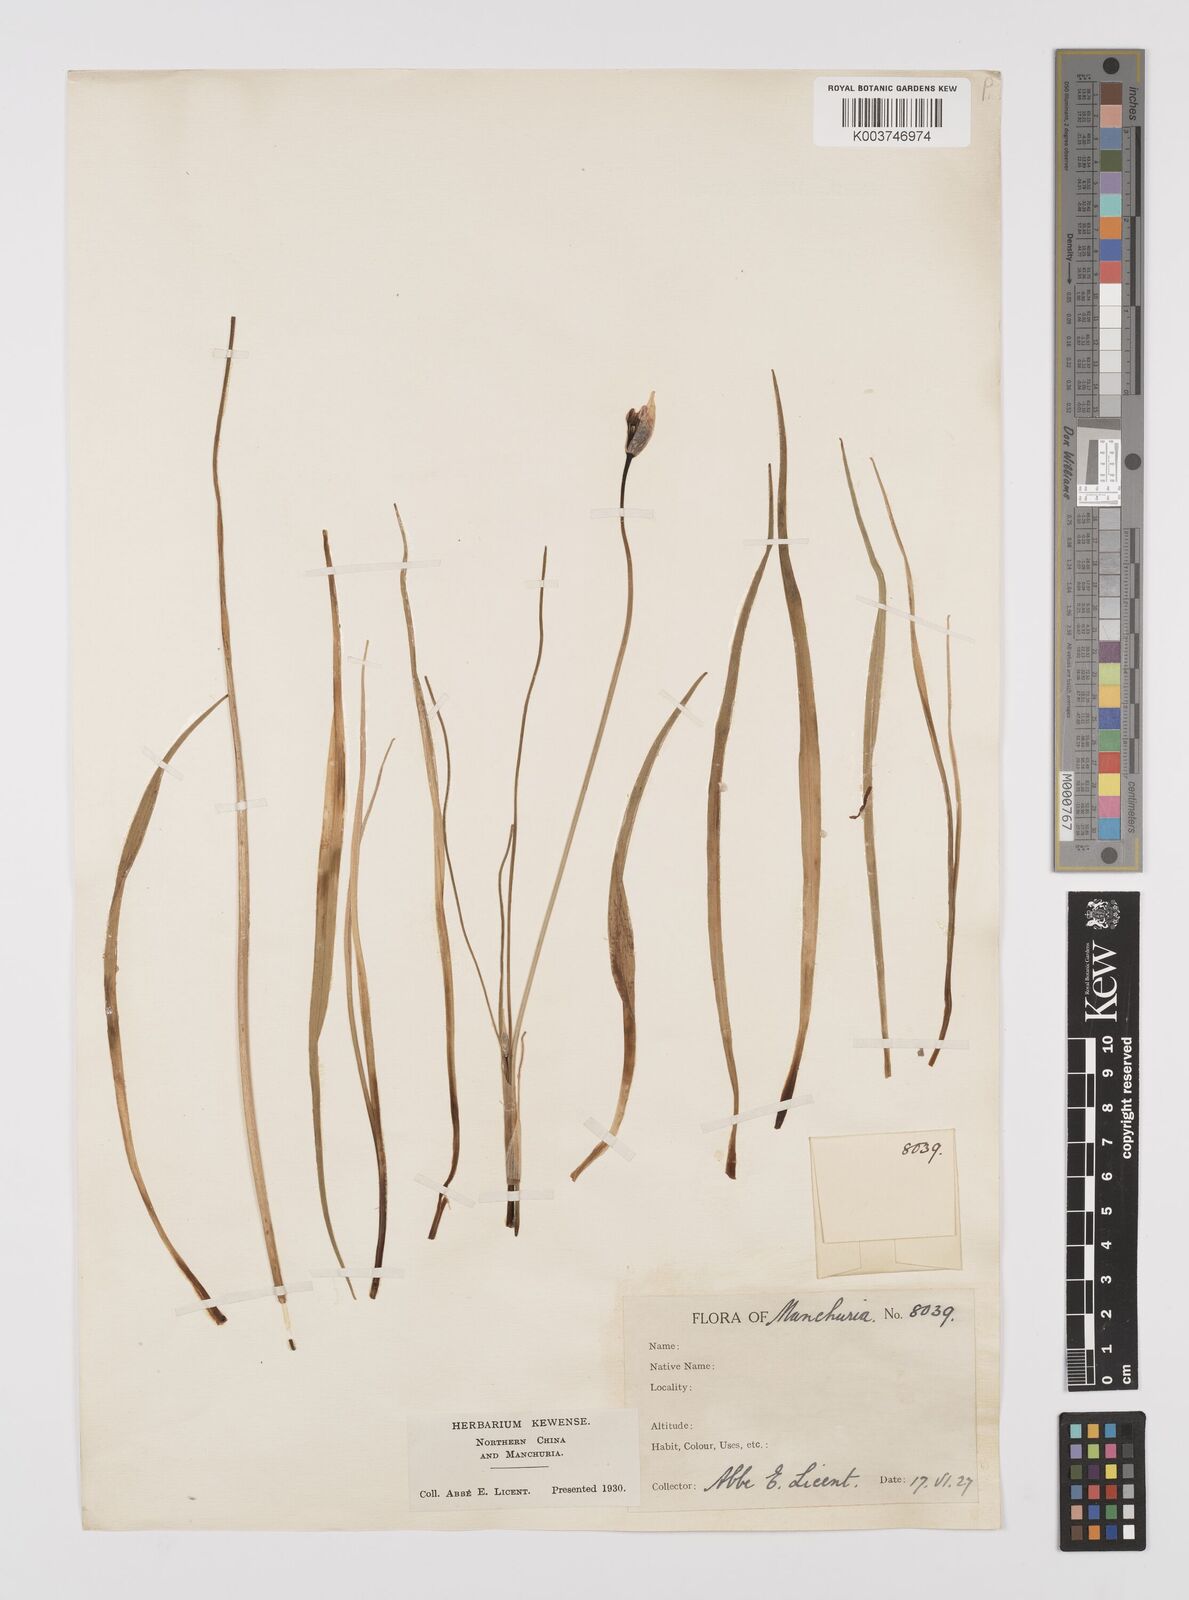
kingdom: Plantae
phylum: Tracheophyta
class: Liliopsida
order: Asparagales
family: Amaryllidaceae
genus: Allium
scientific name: Allium
